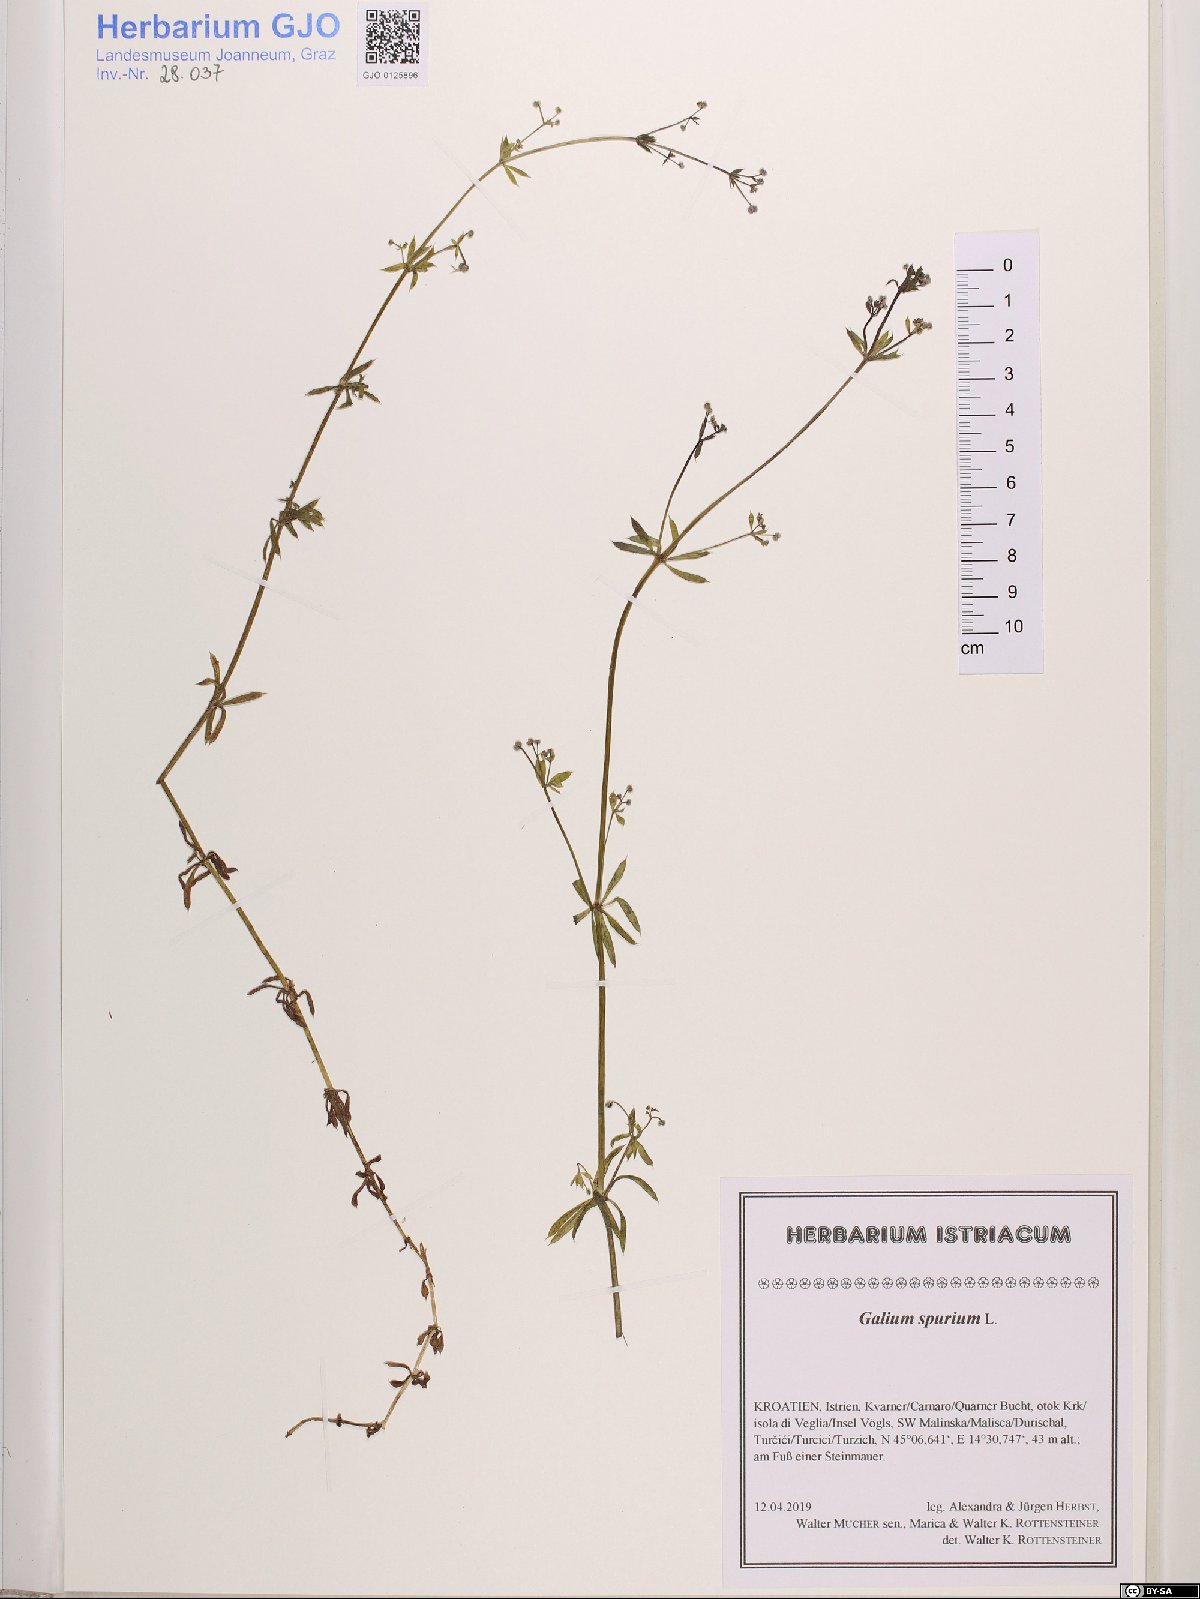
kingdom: Plantae
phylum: Tracheophyta
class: Magnoliopsida
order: Gentianales
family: Rubiaceae
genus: Galium
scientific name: Galium spurium
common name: False cleavers
